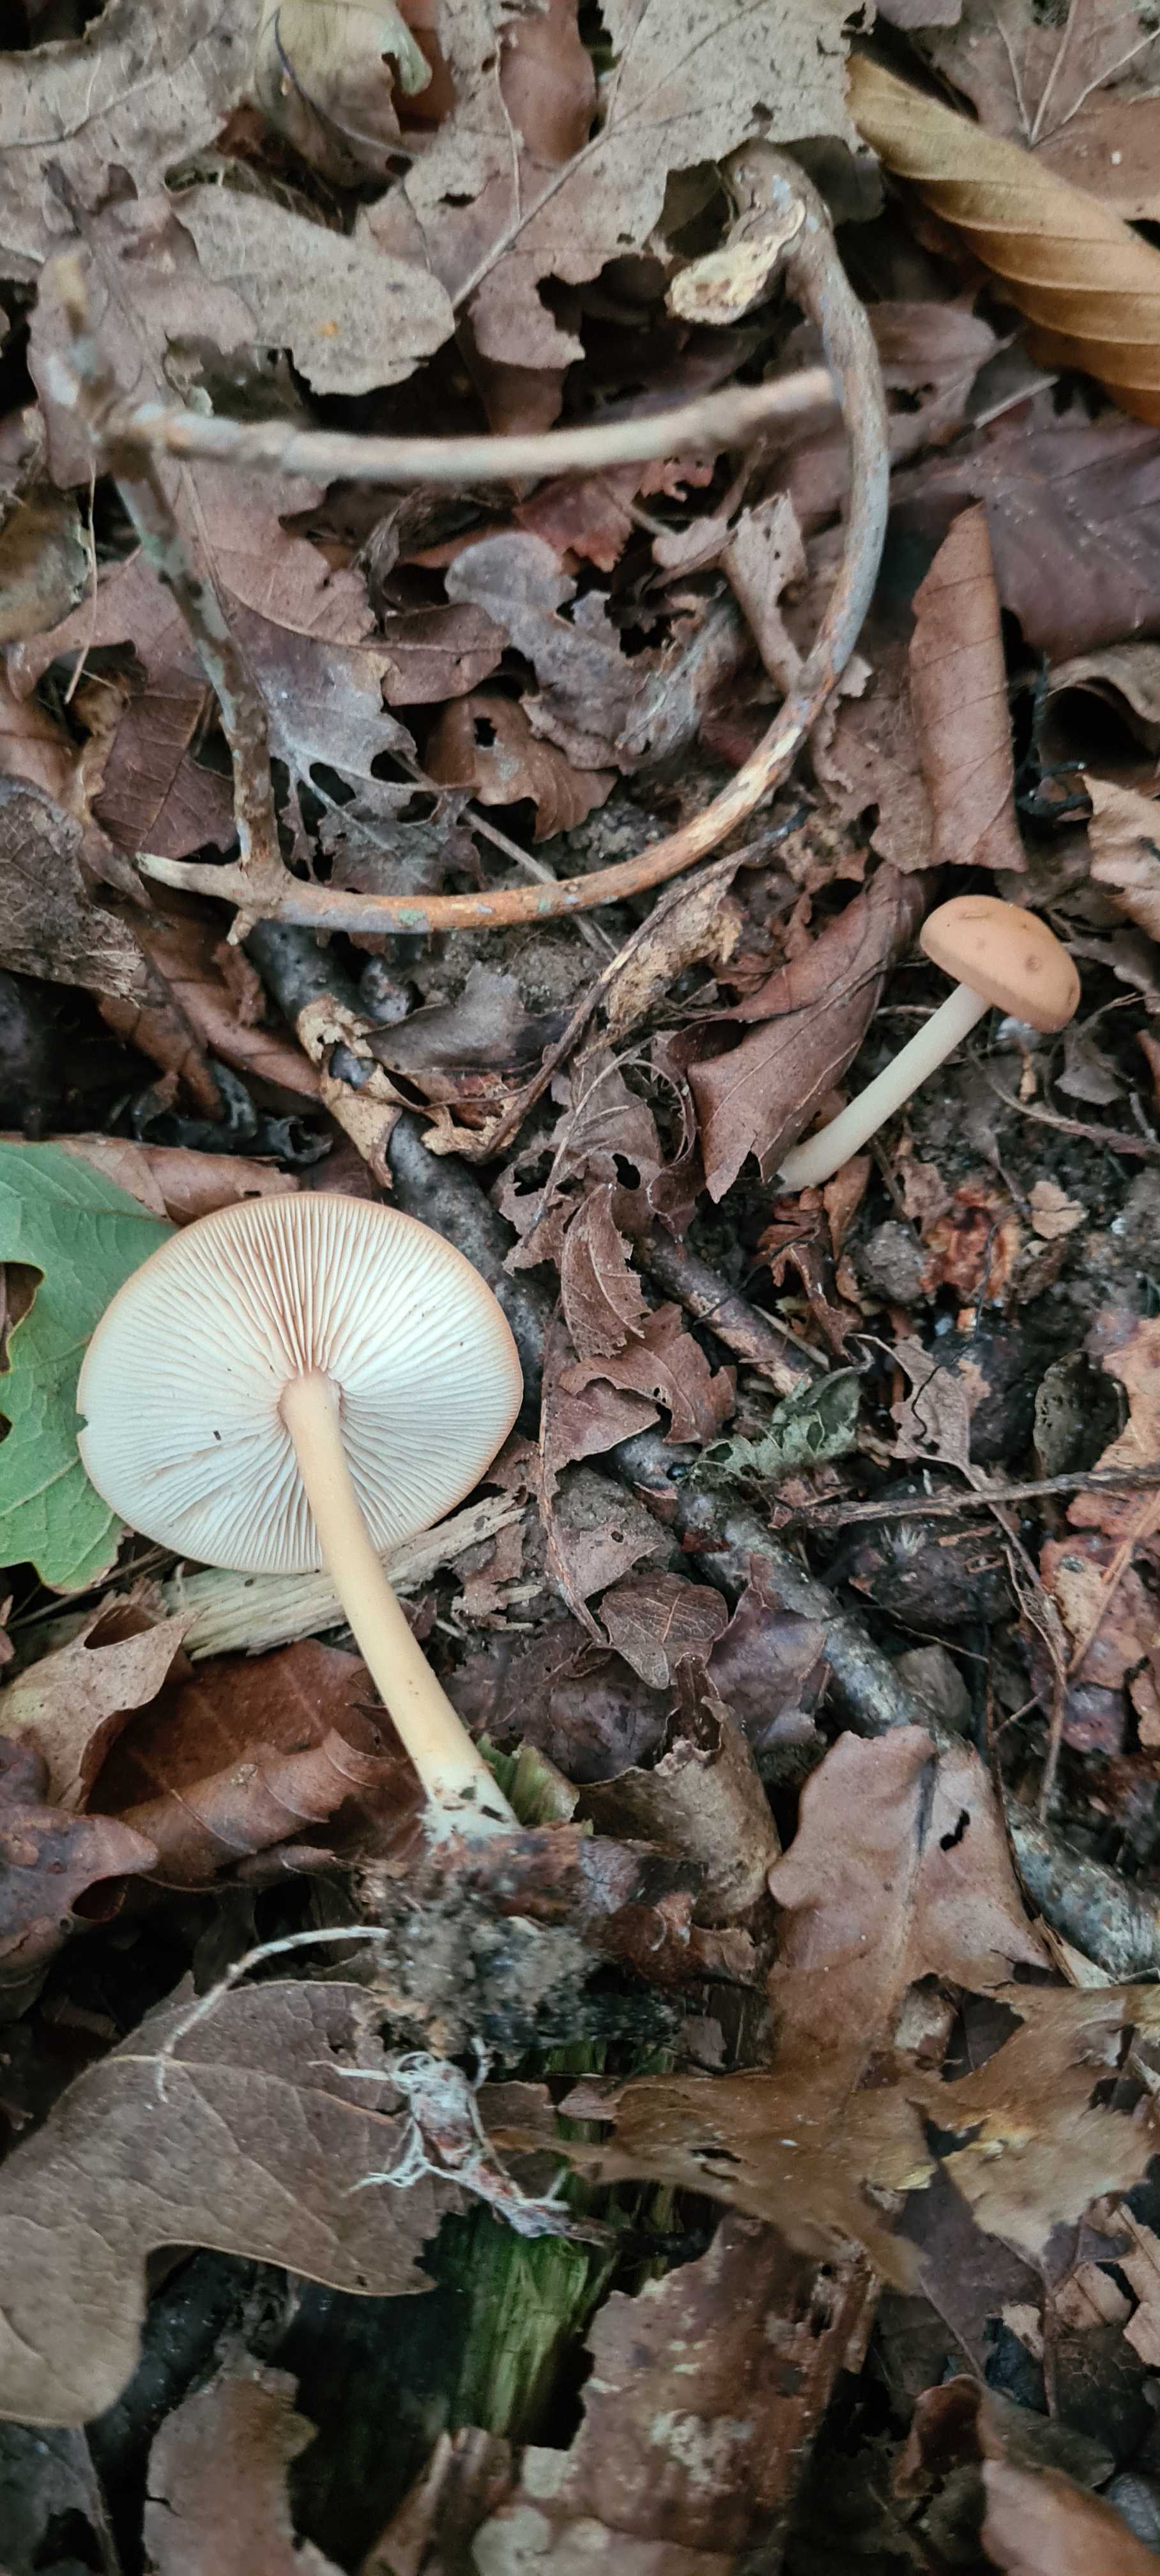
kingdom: Fungi
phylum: Basidiomycota
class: Agaricomycetes
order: Agaricales
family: Omphalotaceae
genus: Gymnopus
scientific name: Gymnopus
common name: fladhat
